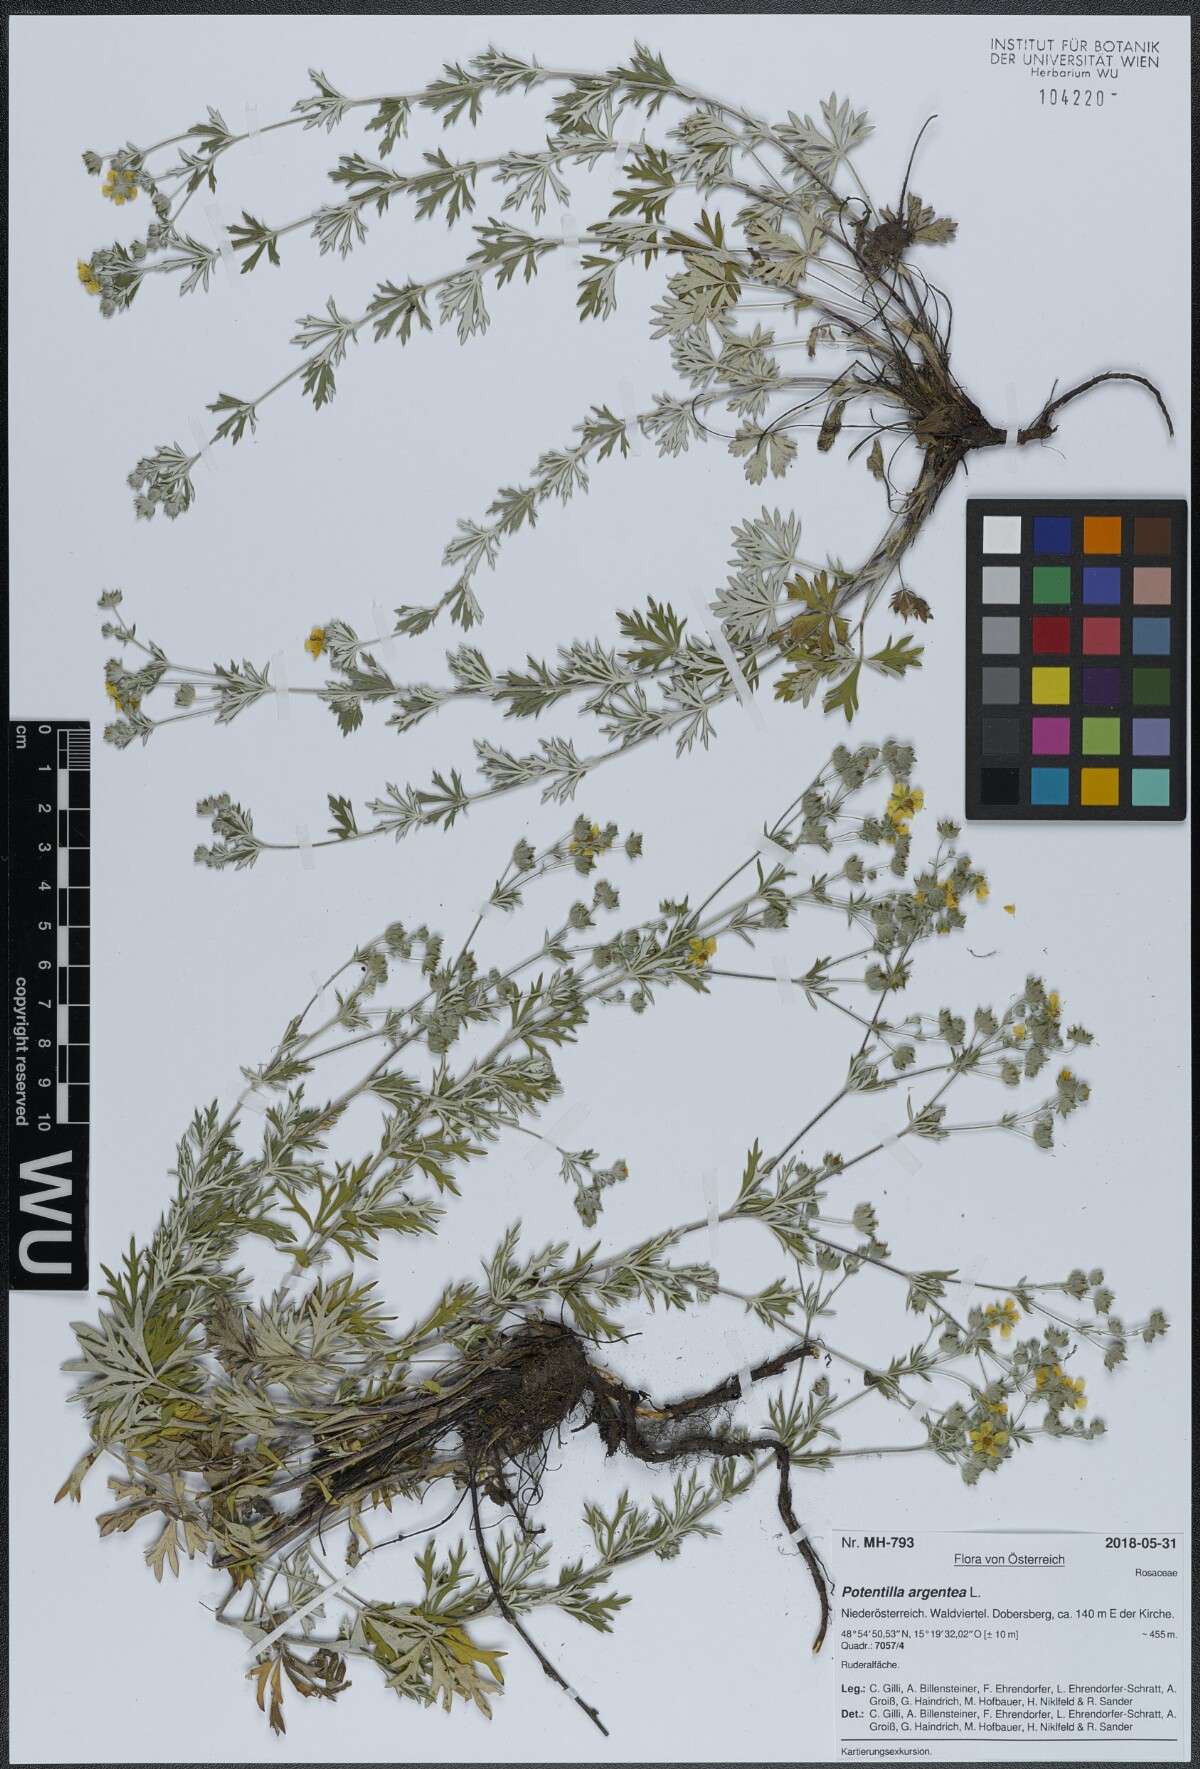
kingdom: Plantae
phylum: Tracheophyta
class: Magnoliopsida
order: Rosales
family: Rosaceae
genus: Potentilla
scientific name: Potentilla argentea
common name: Hoary cinquefoil
